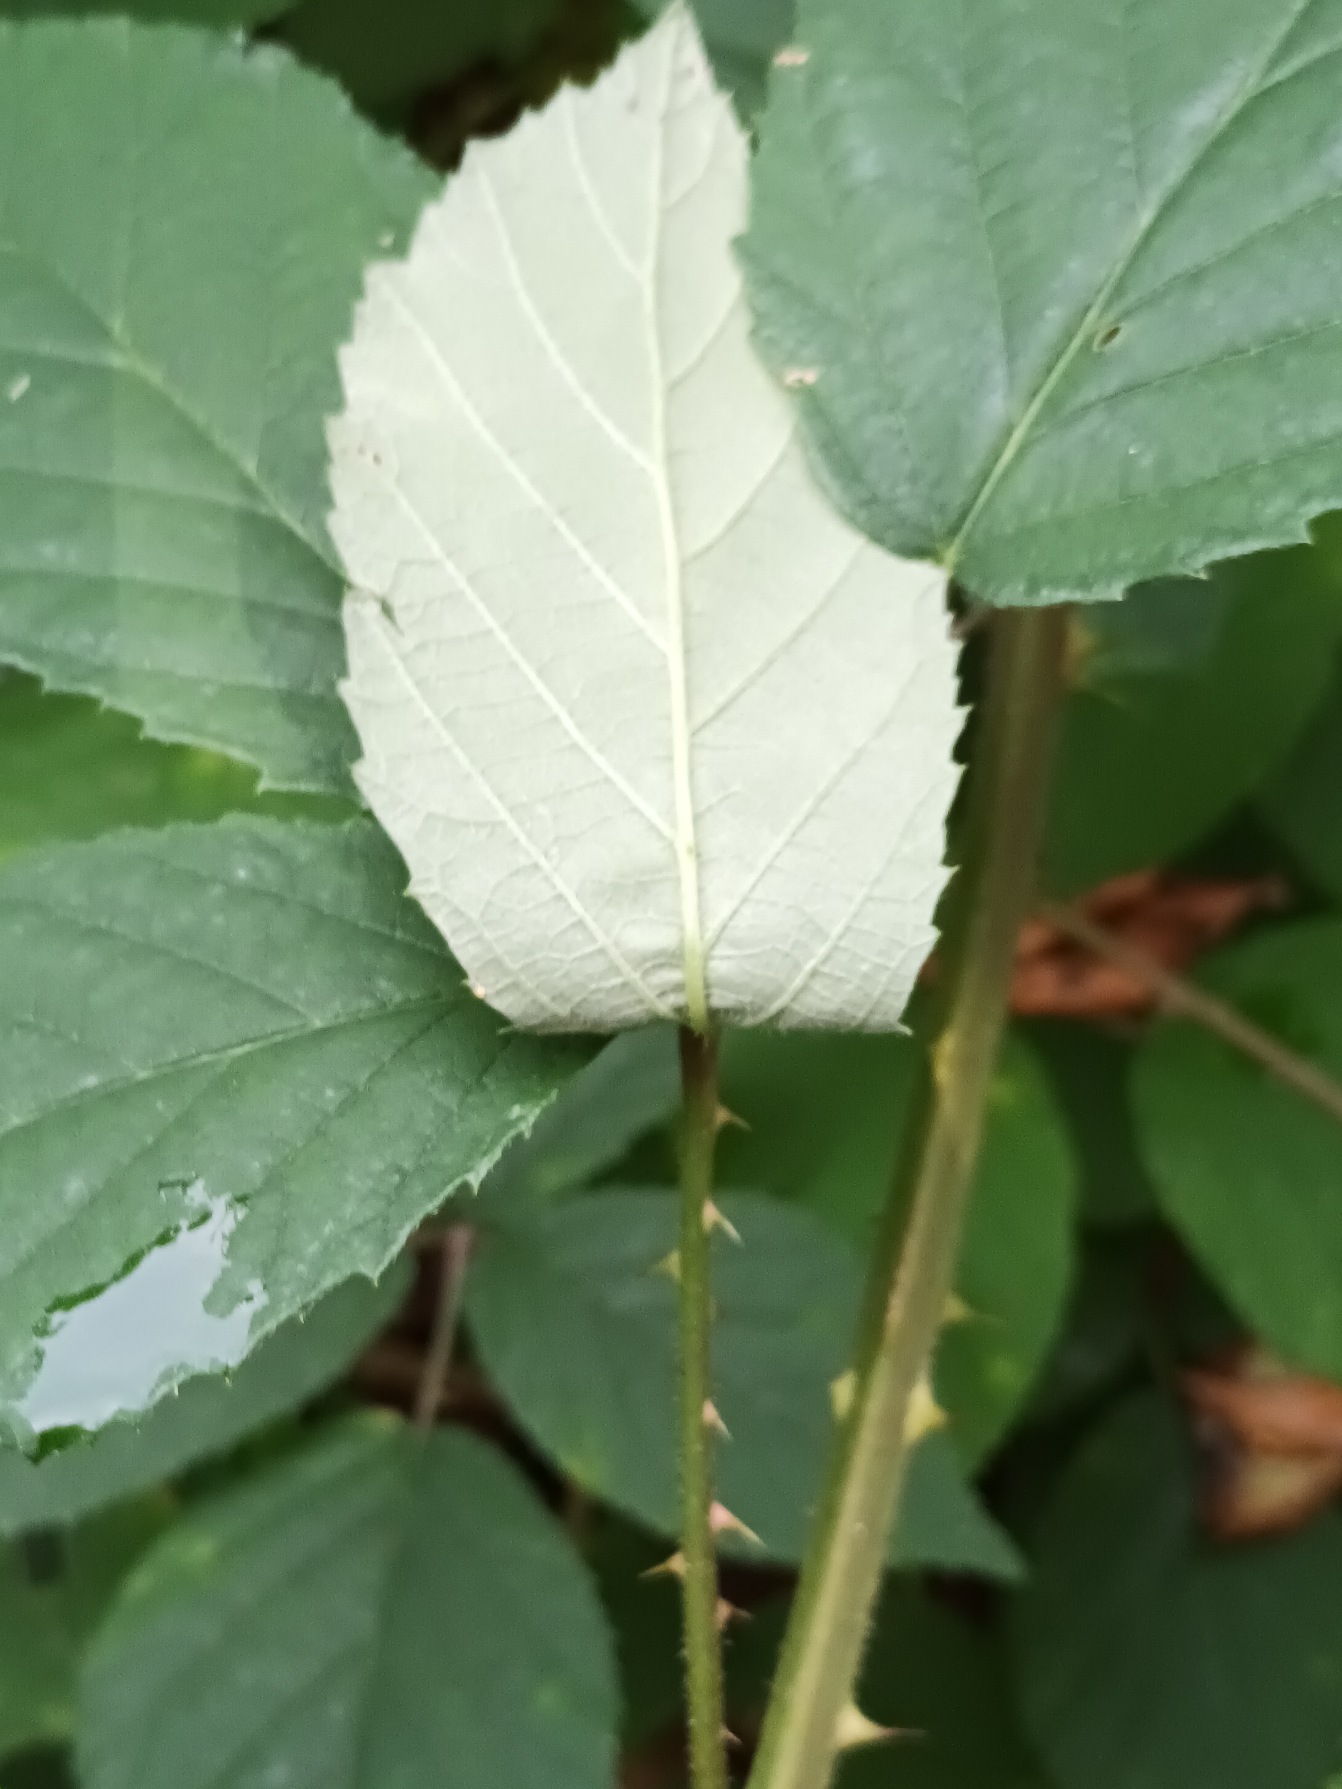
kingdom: Plantae
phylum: Tracheophyta
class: Magnoliopsida
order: Rosales
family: Rosaceae
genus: Rubus
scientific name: Rubus radula
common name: Rasperu brombær
